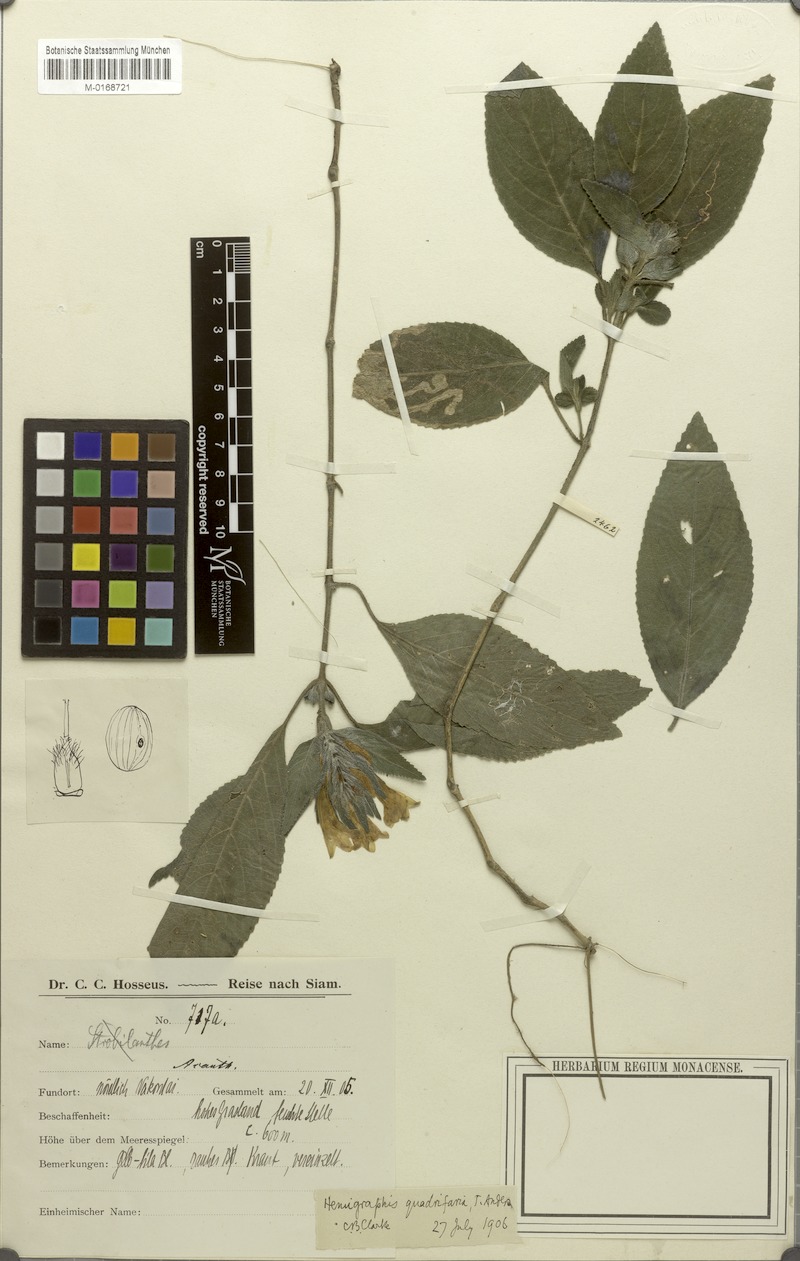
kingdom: Plantae
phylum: Tracheophyta
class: Magnoliopsida
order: Lamiales
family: Acanthaceae
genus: Strobilanthes
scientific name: Strobilanthes quadrifaria
